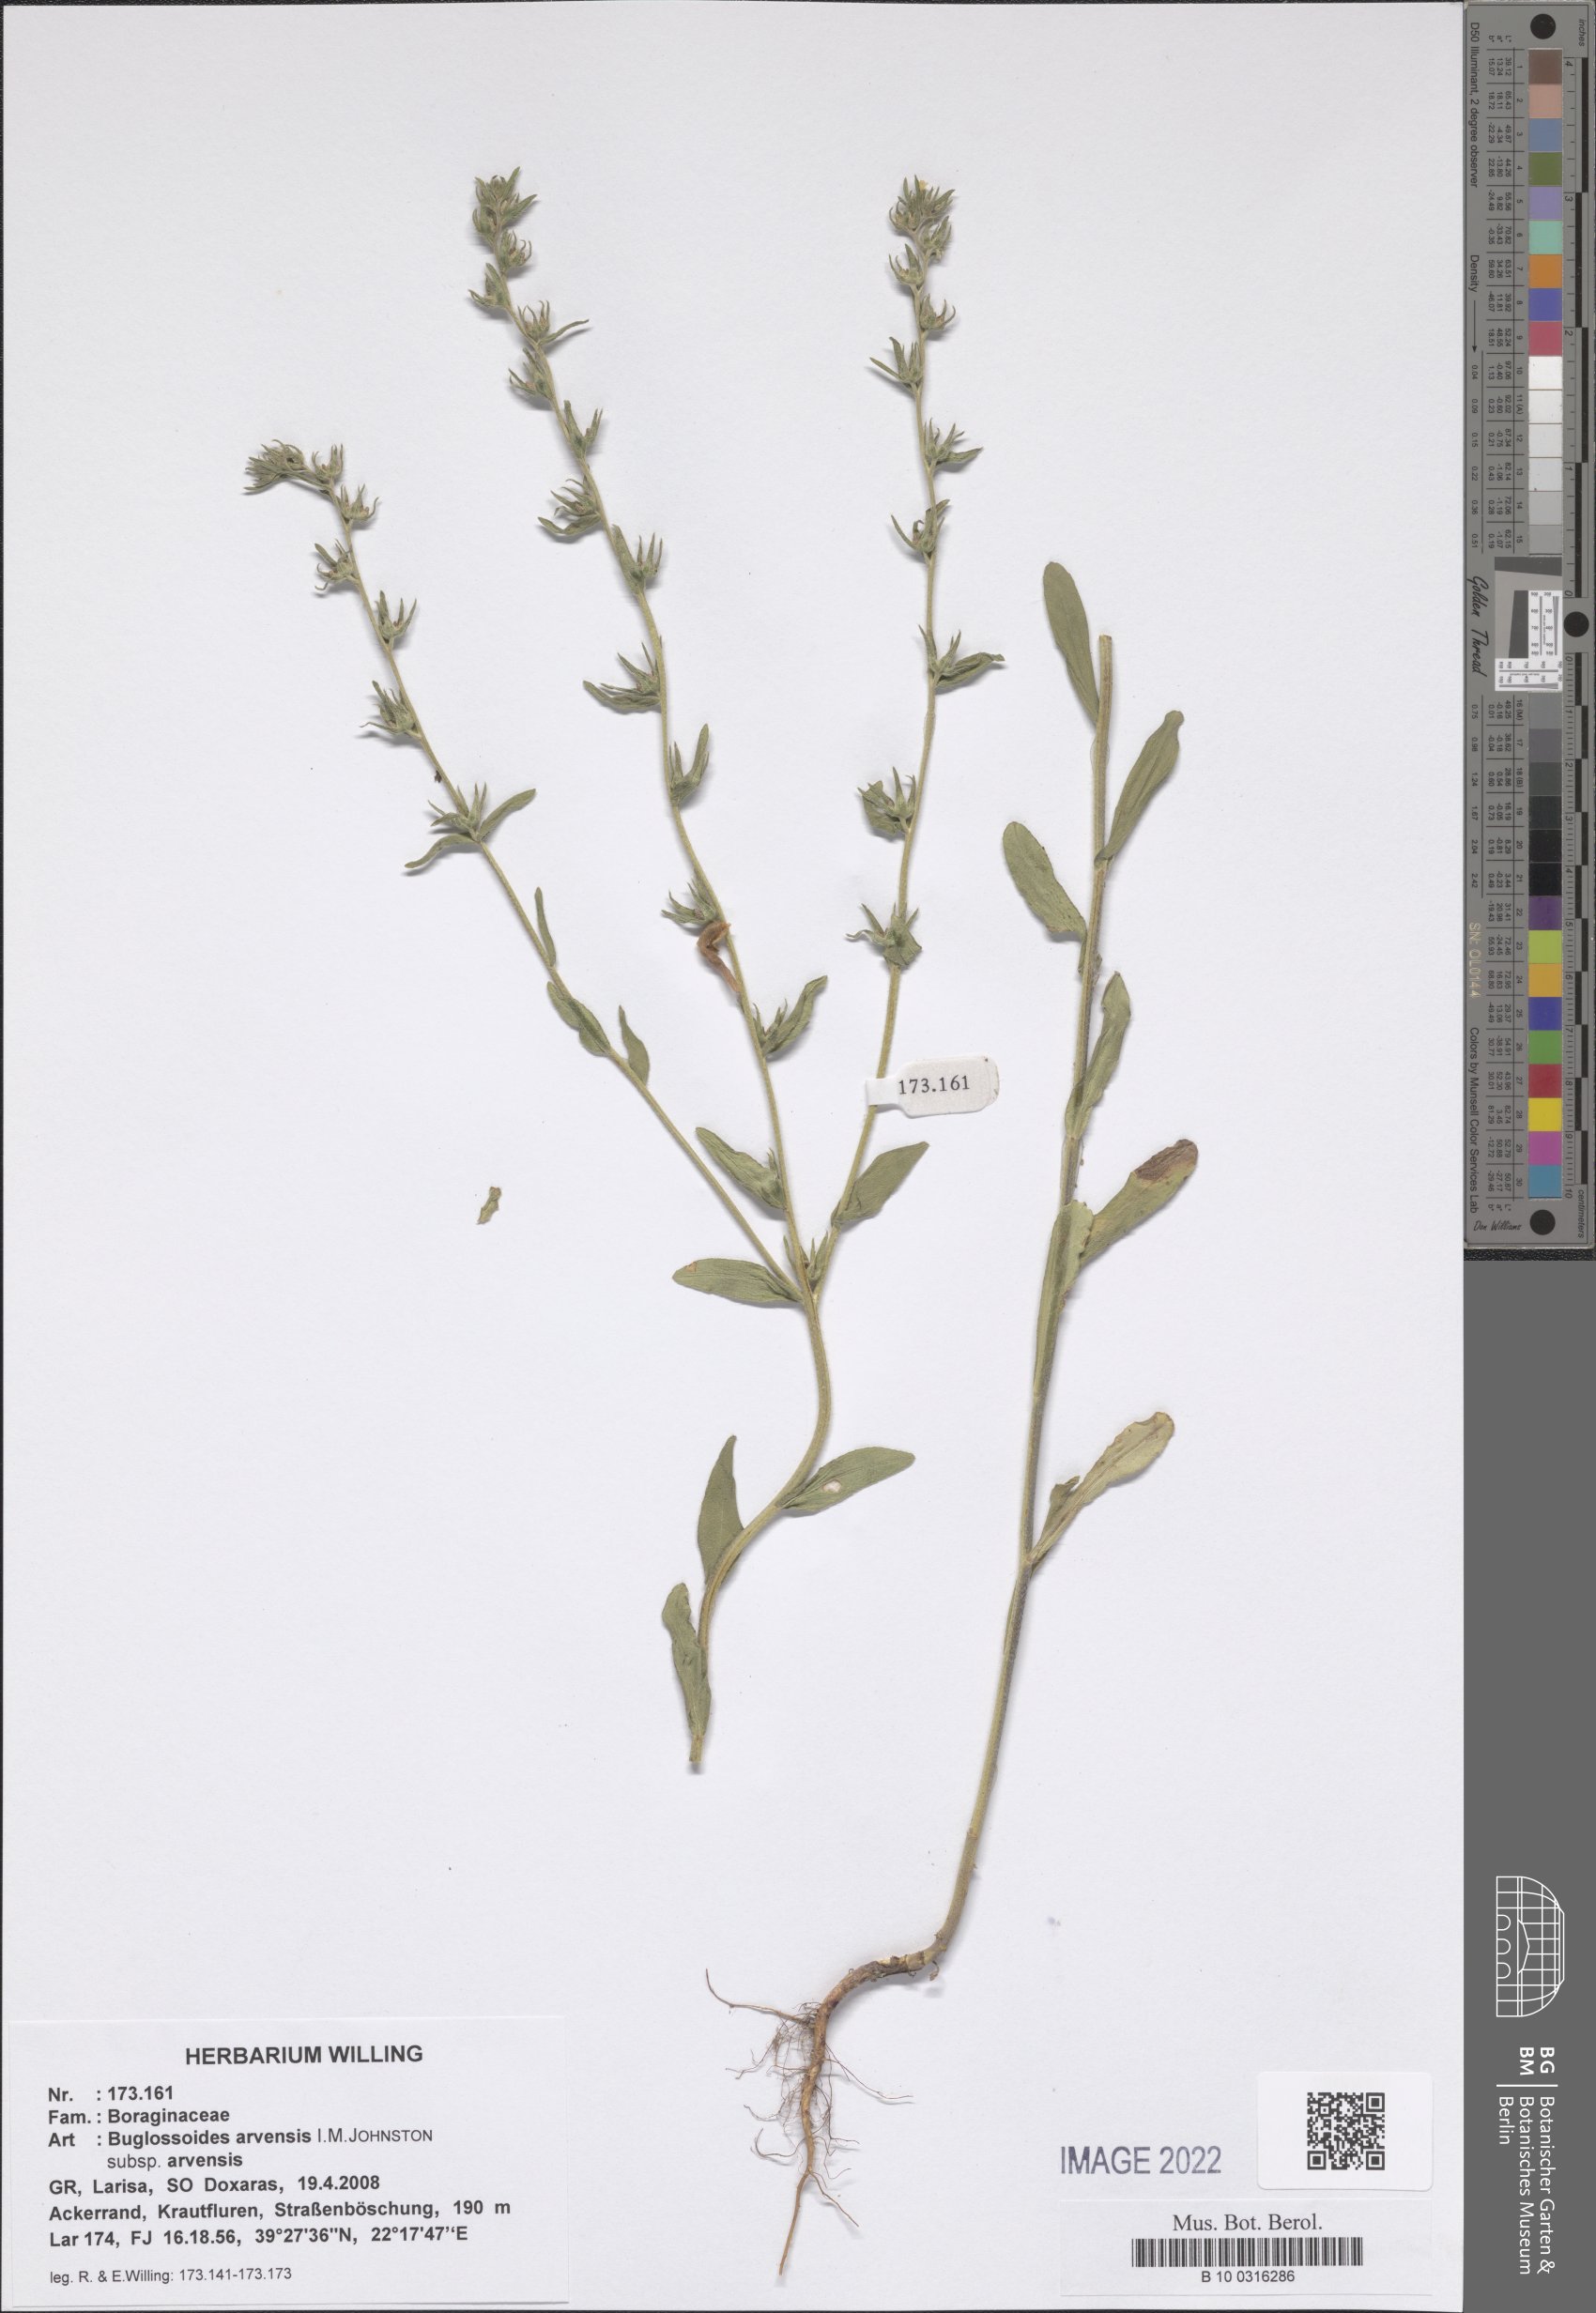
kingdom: Plantae
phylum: Tracheophyta
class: Magnoliopsida
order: Boraginales
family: Boraginaceae
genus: Buglossoides
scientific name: Buglossoides arvensis
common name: Corn gromwell
